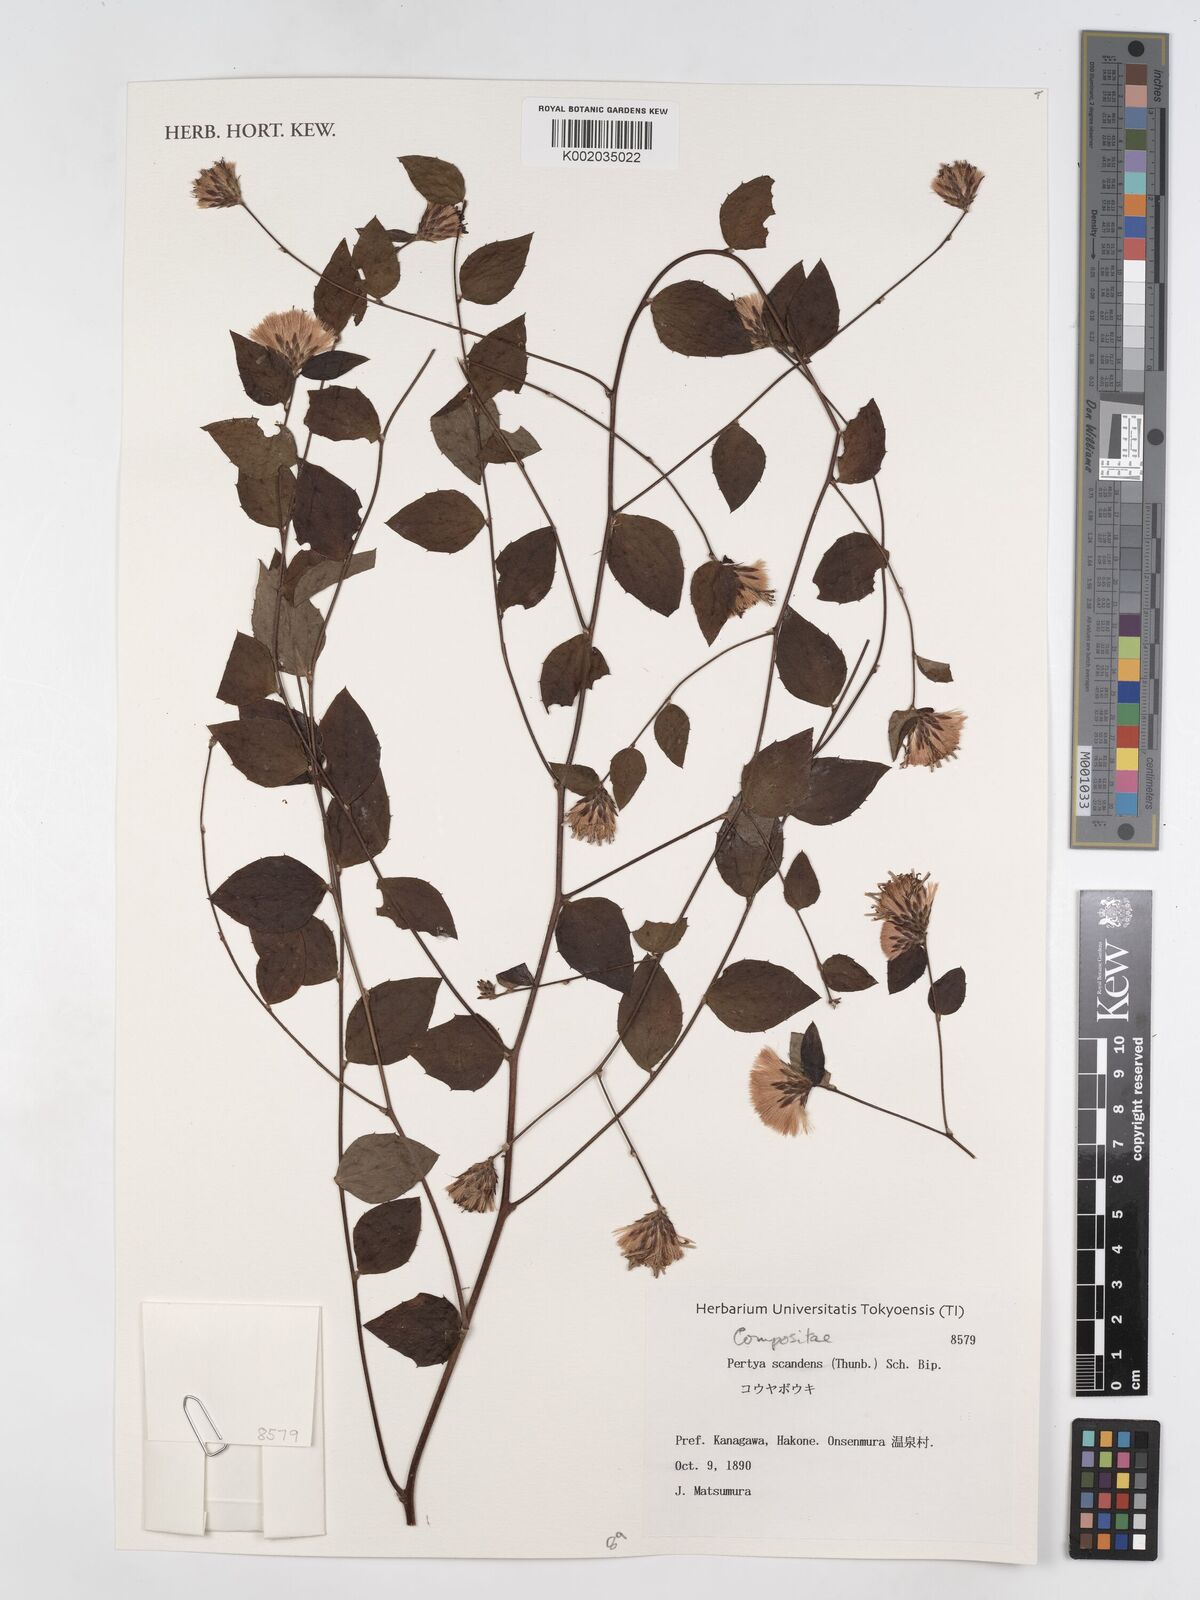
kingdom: Plantae
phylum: Tracheophyta
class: Magnoliopsida
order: Asterales
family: Asteraceae
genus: Pertya
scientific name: Pertya scandens
